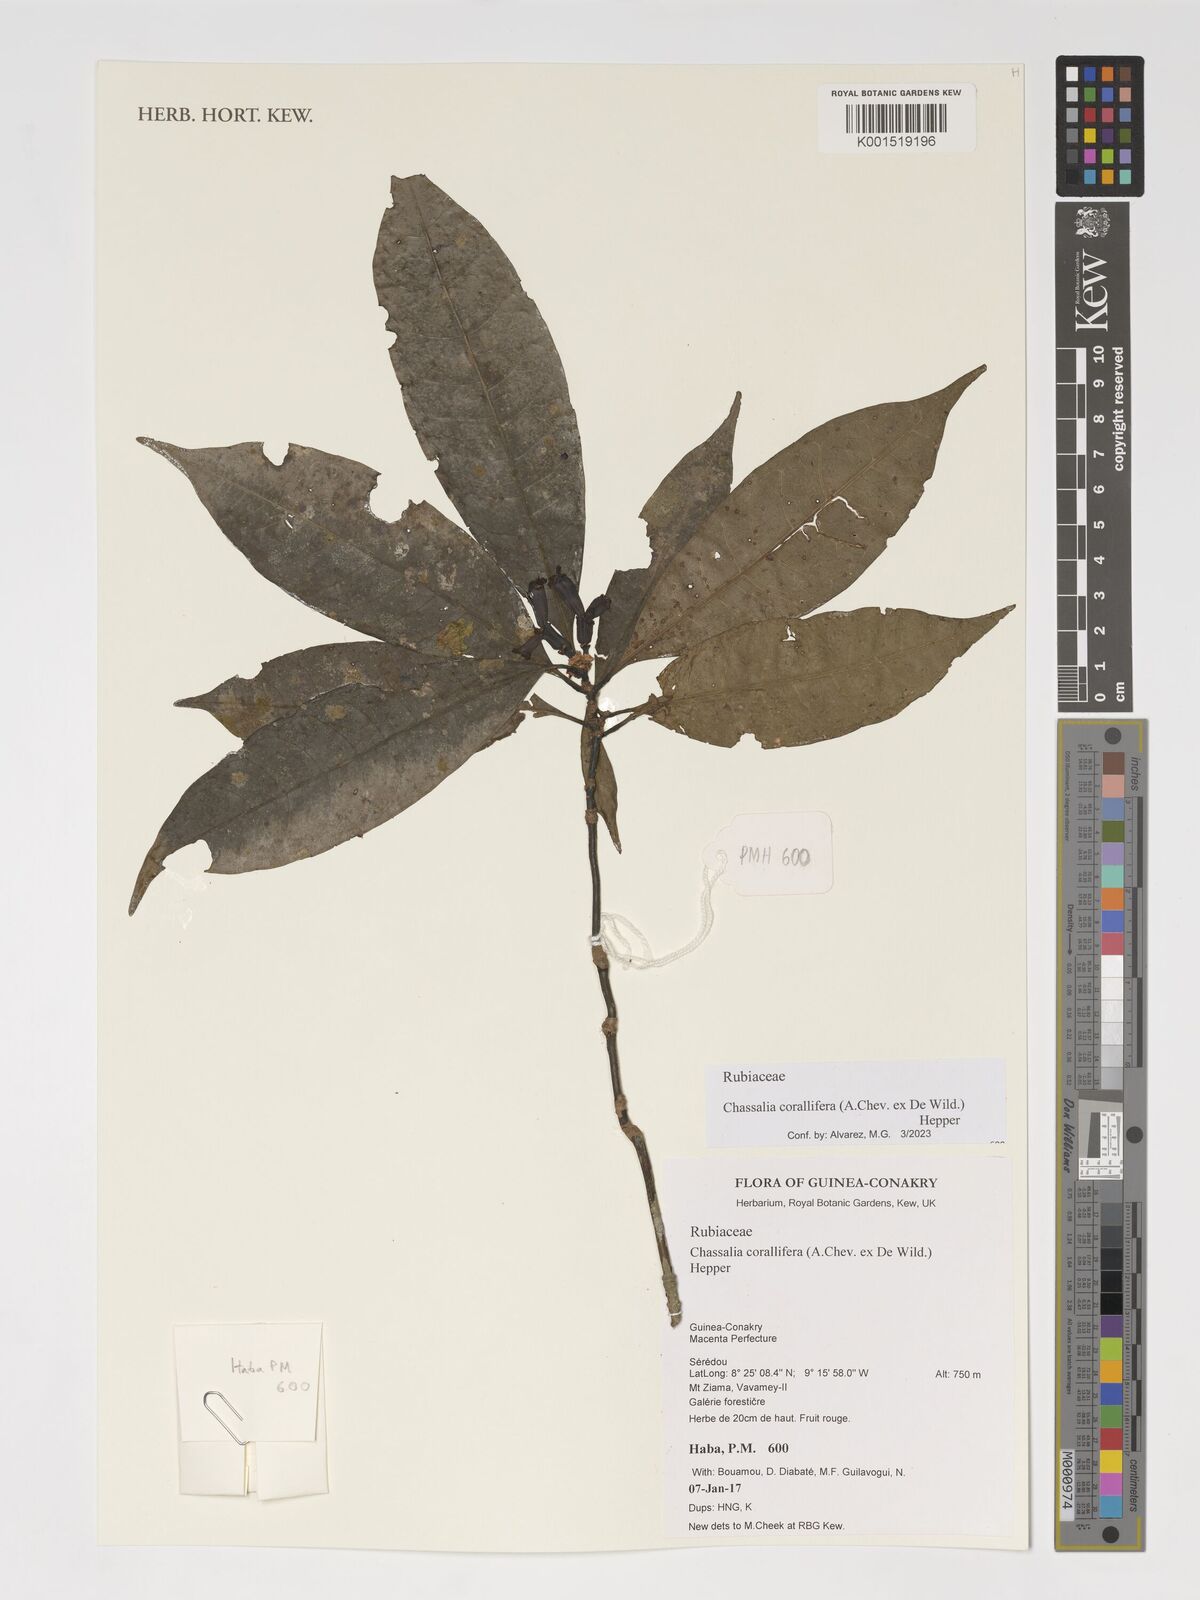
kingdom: Plantae
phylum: Tracheophyta
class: Magnoliopsida
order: Gentianales
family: Rubiaceae
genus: Chassalia
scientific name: Chassalia corallifera
